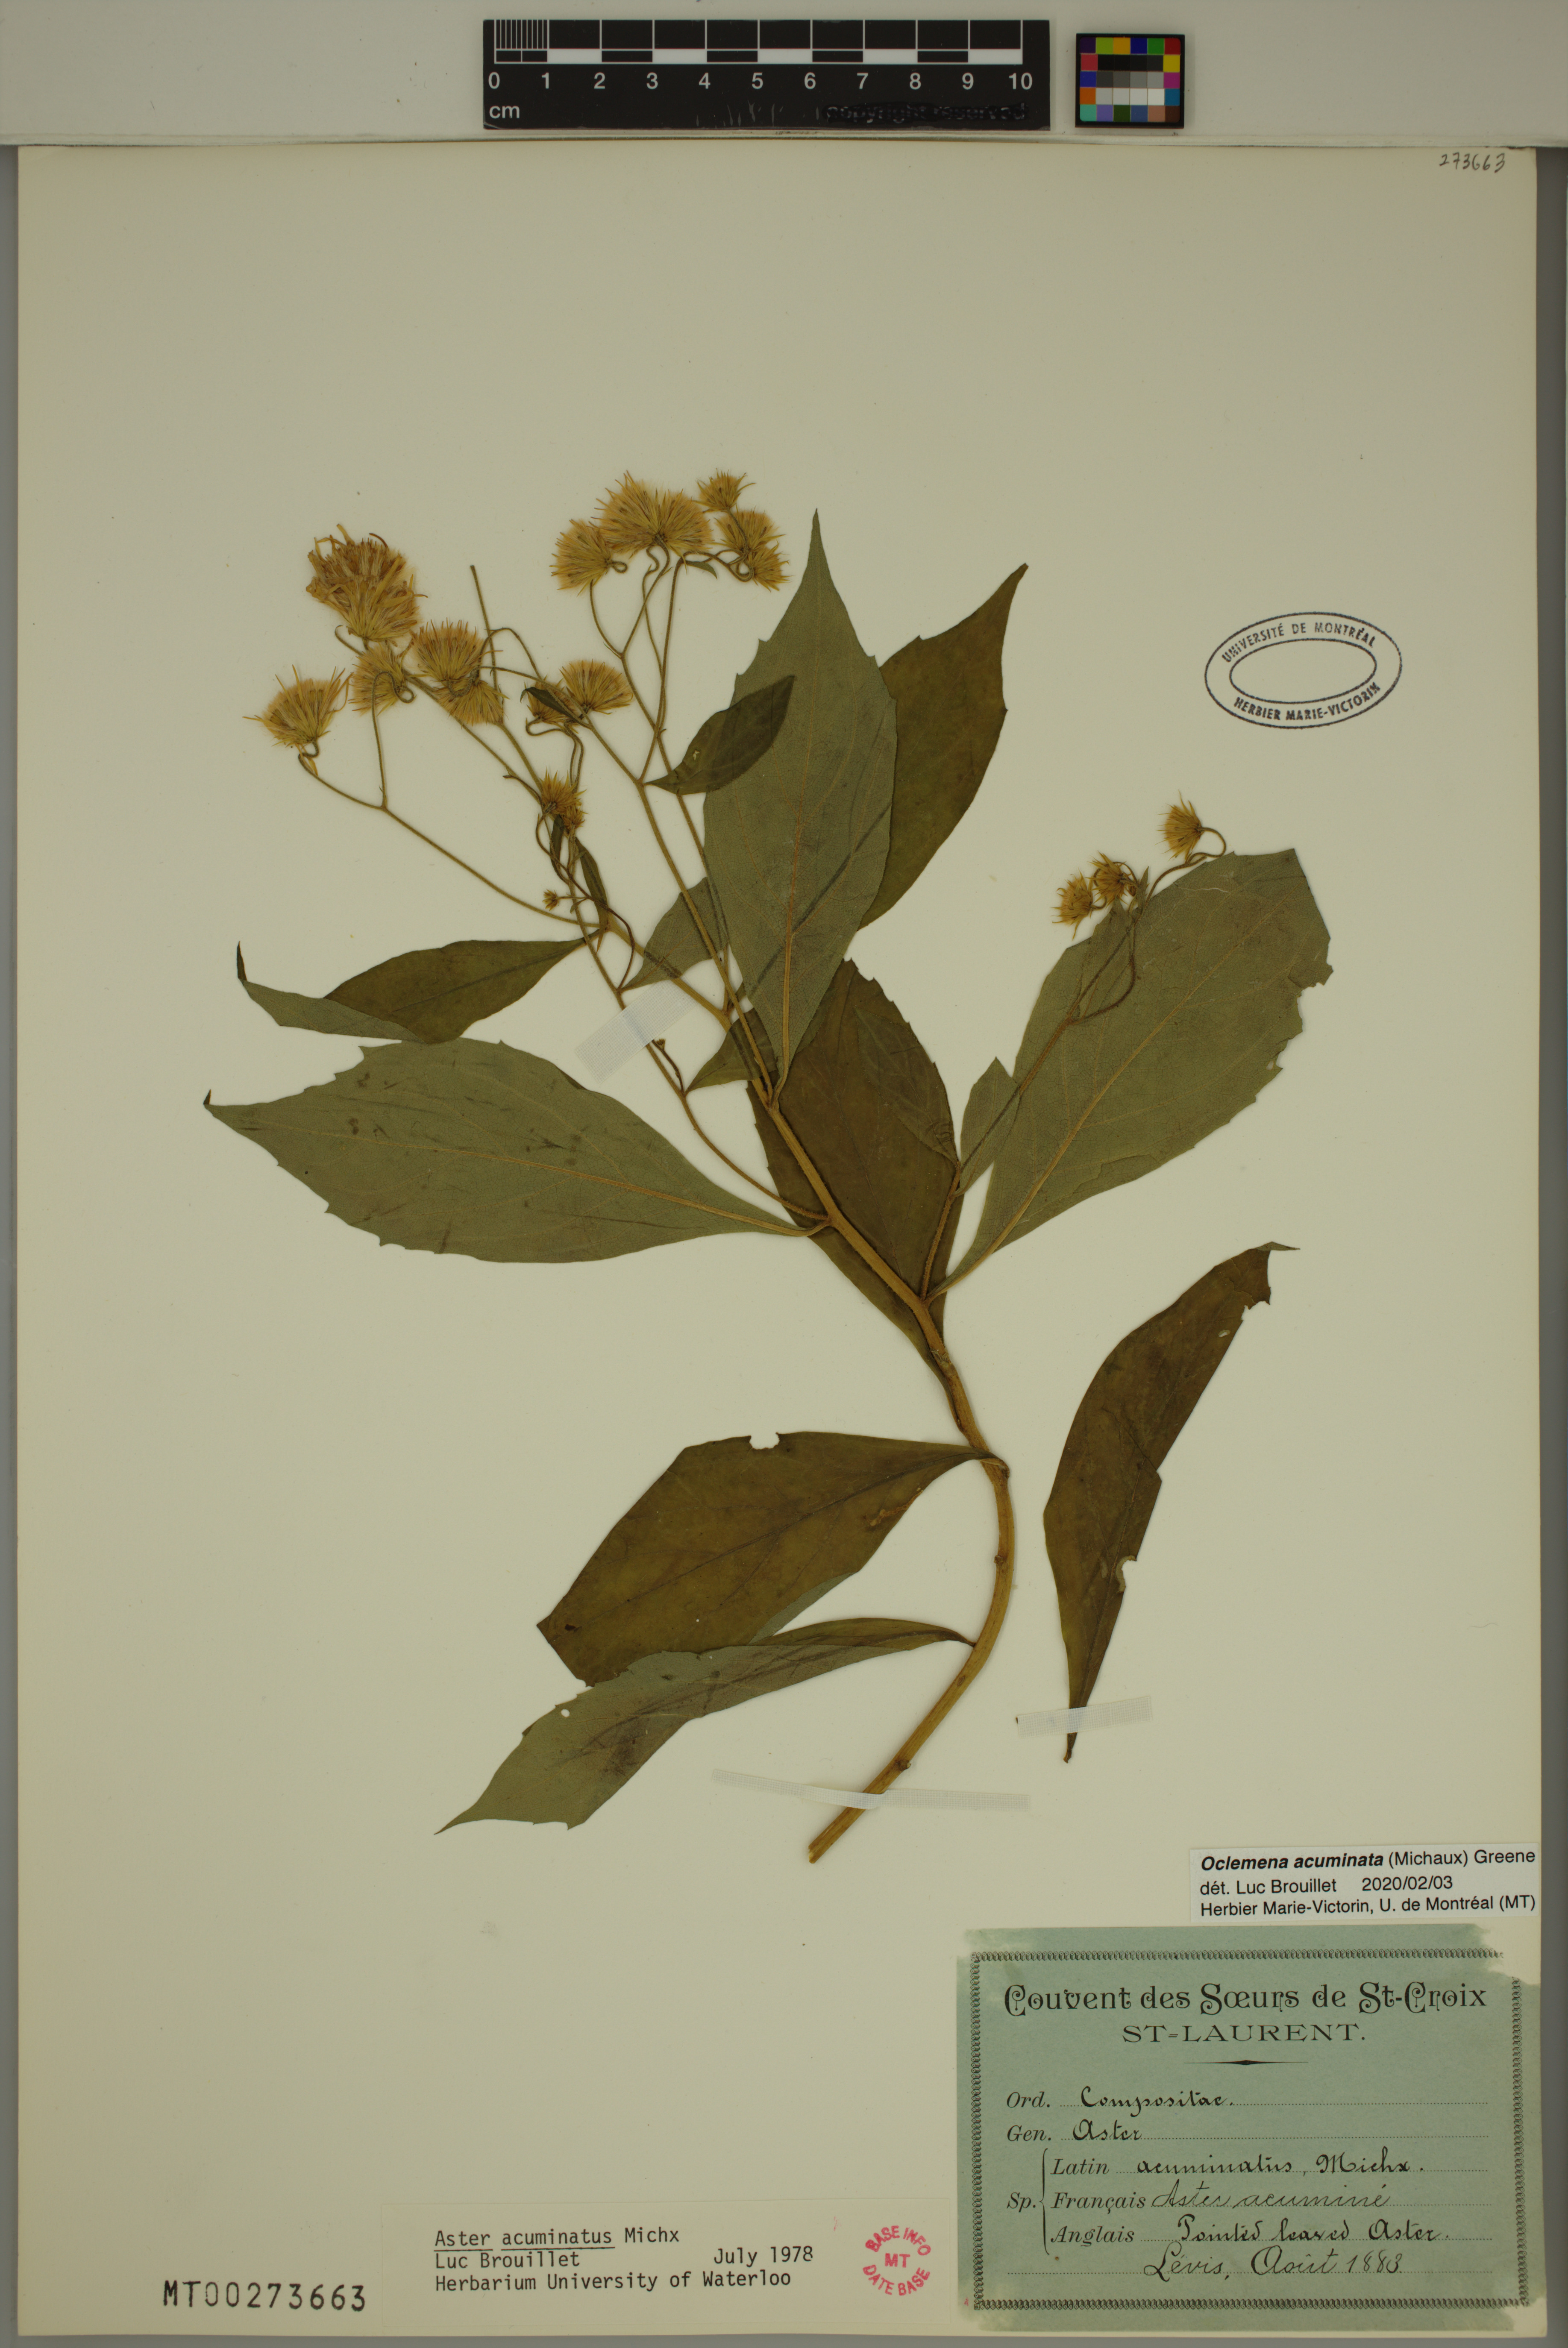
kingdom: Plantae
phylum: Tracheophyta
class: Magnoliopsida
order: Asterales
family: Asteraceae
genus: Oclemena
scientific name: Oclemena acuminata
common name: Mountain aster
